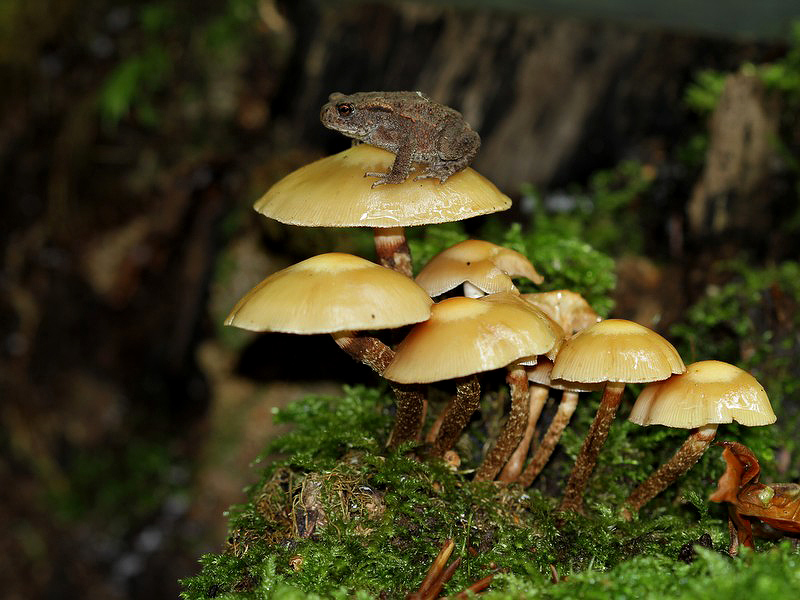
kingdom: Fungi
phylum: Basidiomycota
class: Agaricomycetes
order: Agaricales
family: Strophariaceae
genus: Kuehneromyces
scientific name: Kuehneromyces mutabilis
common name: foranderlig skælhat
